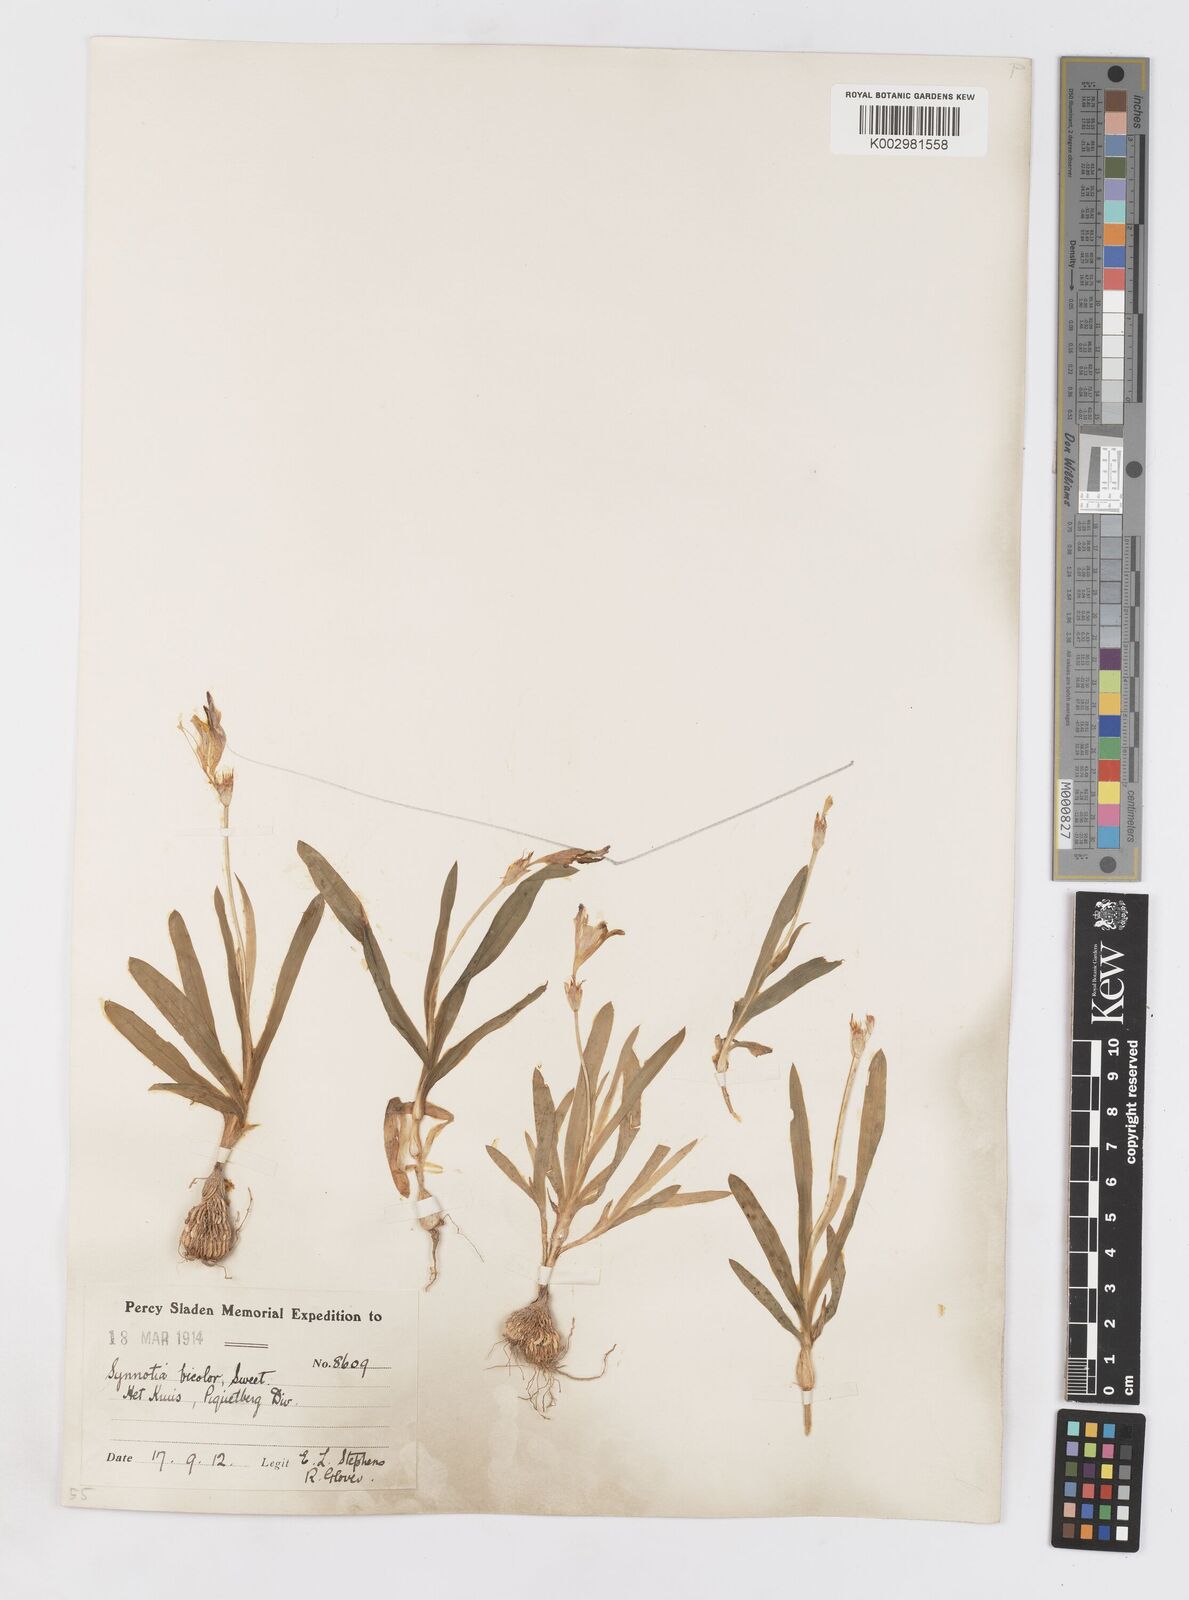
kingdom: Plantae
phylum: Tracheophyta
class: Liliopsida
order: Asparagales
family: Iridaceae
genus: Sparaxis
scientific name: Sparaxis
